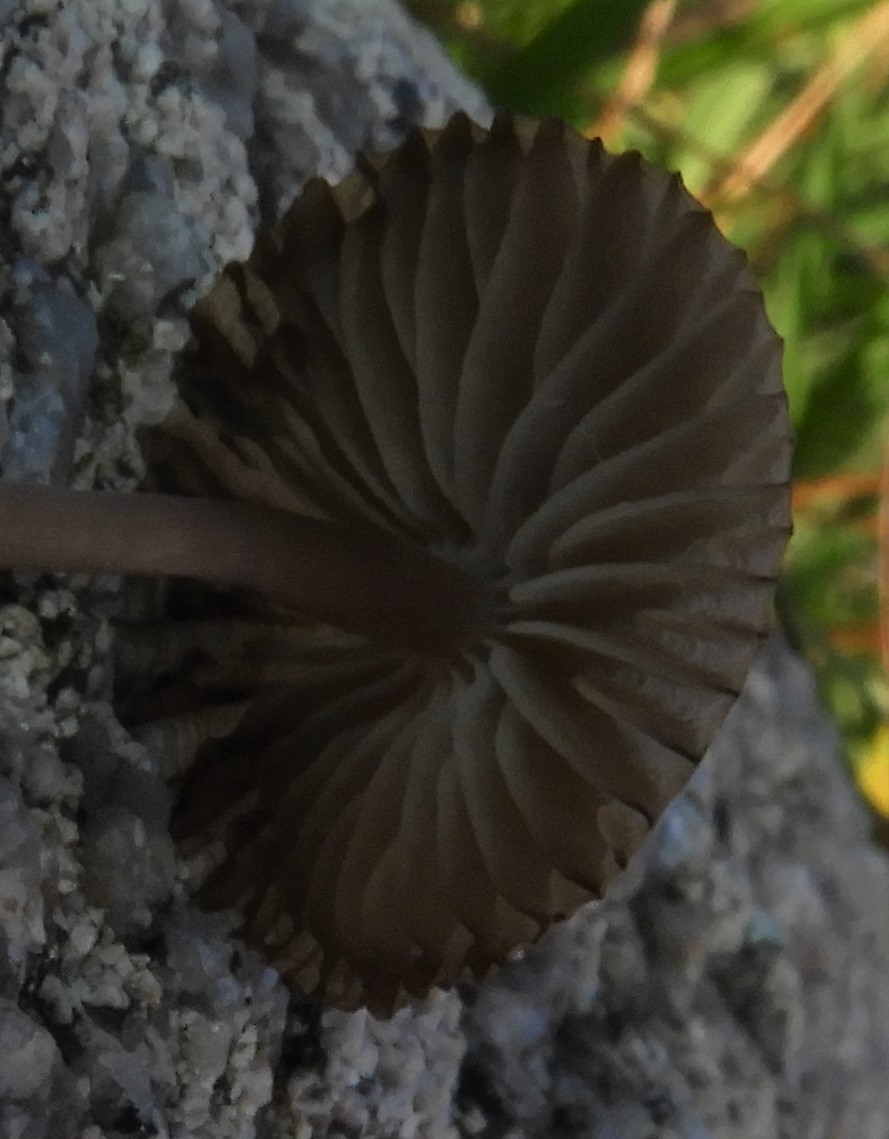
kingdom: Fungi
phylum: Basidiomycota
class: Agaricomycetes
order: Agaricales
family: Mycenaceae
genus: Mycena
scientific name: Mycena
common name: huesvamp
